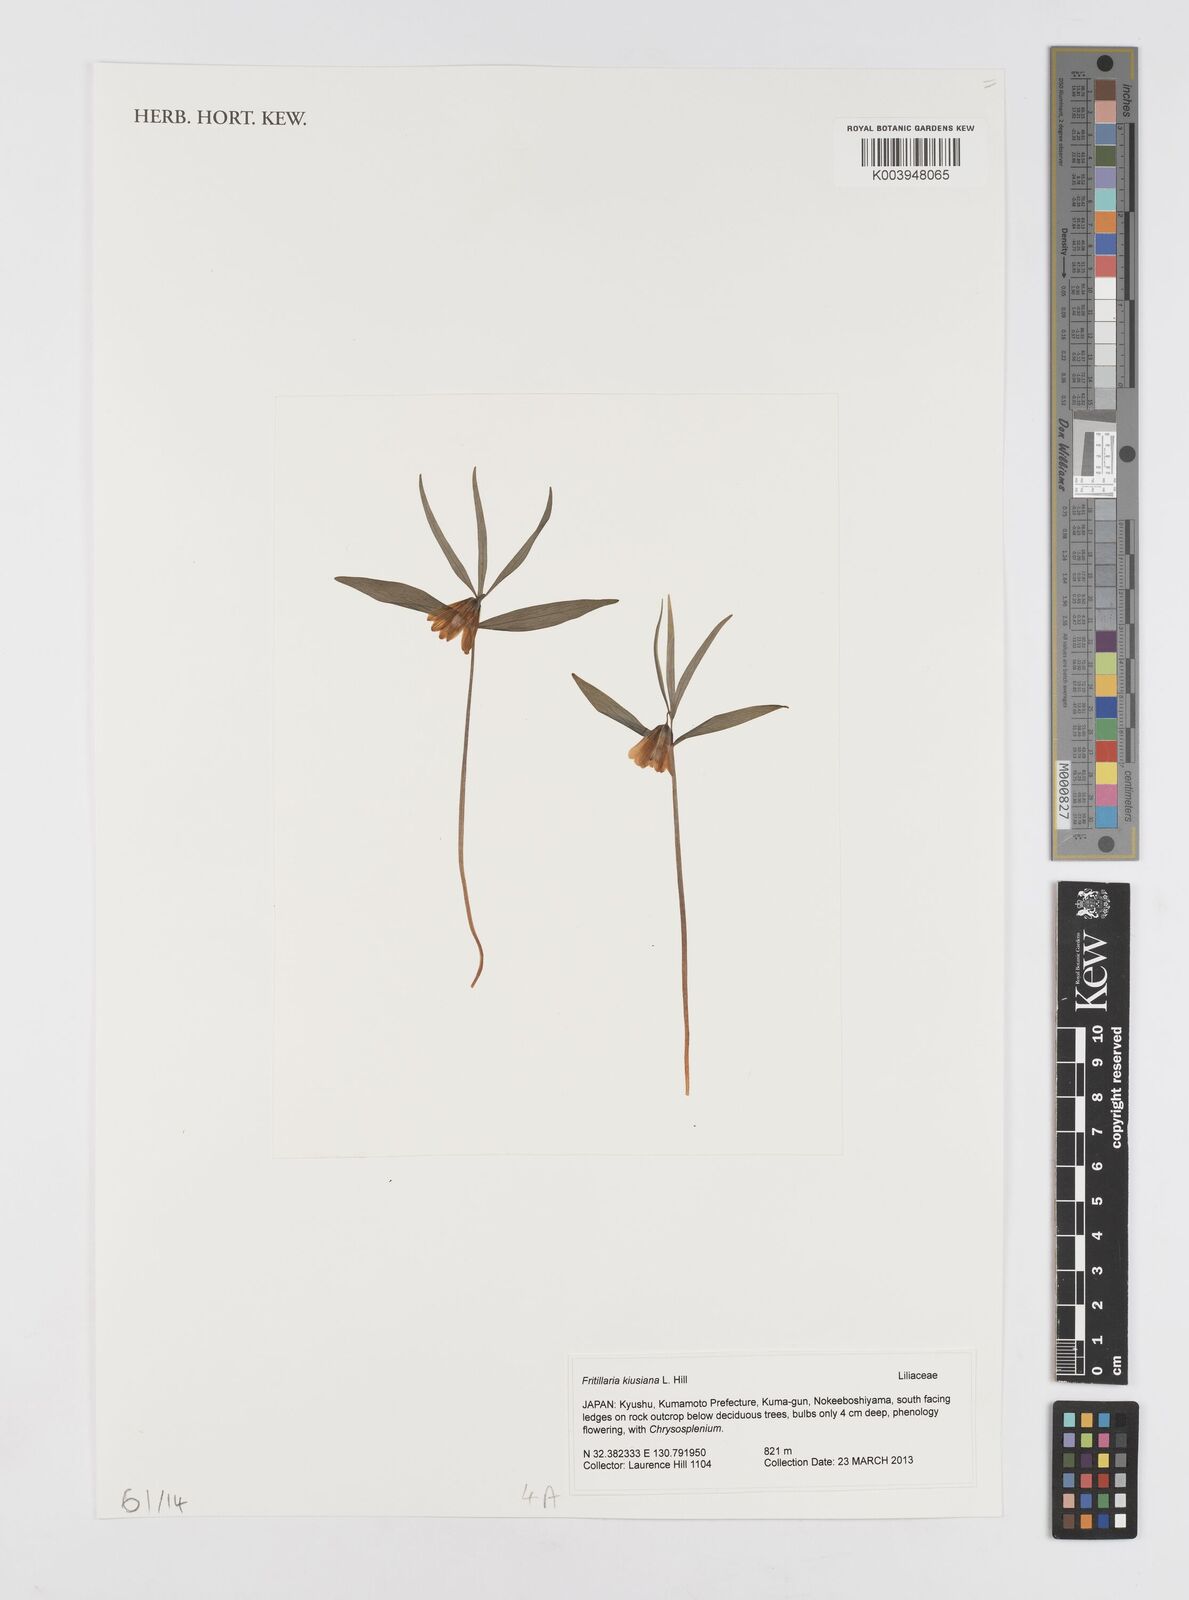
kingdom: Plantae
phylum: Tracheophyta
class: Liliopsida
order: Liliales
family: Liliaceae
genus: Fritillaria
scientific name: Fritillaria kiusiana
